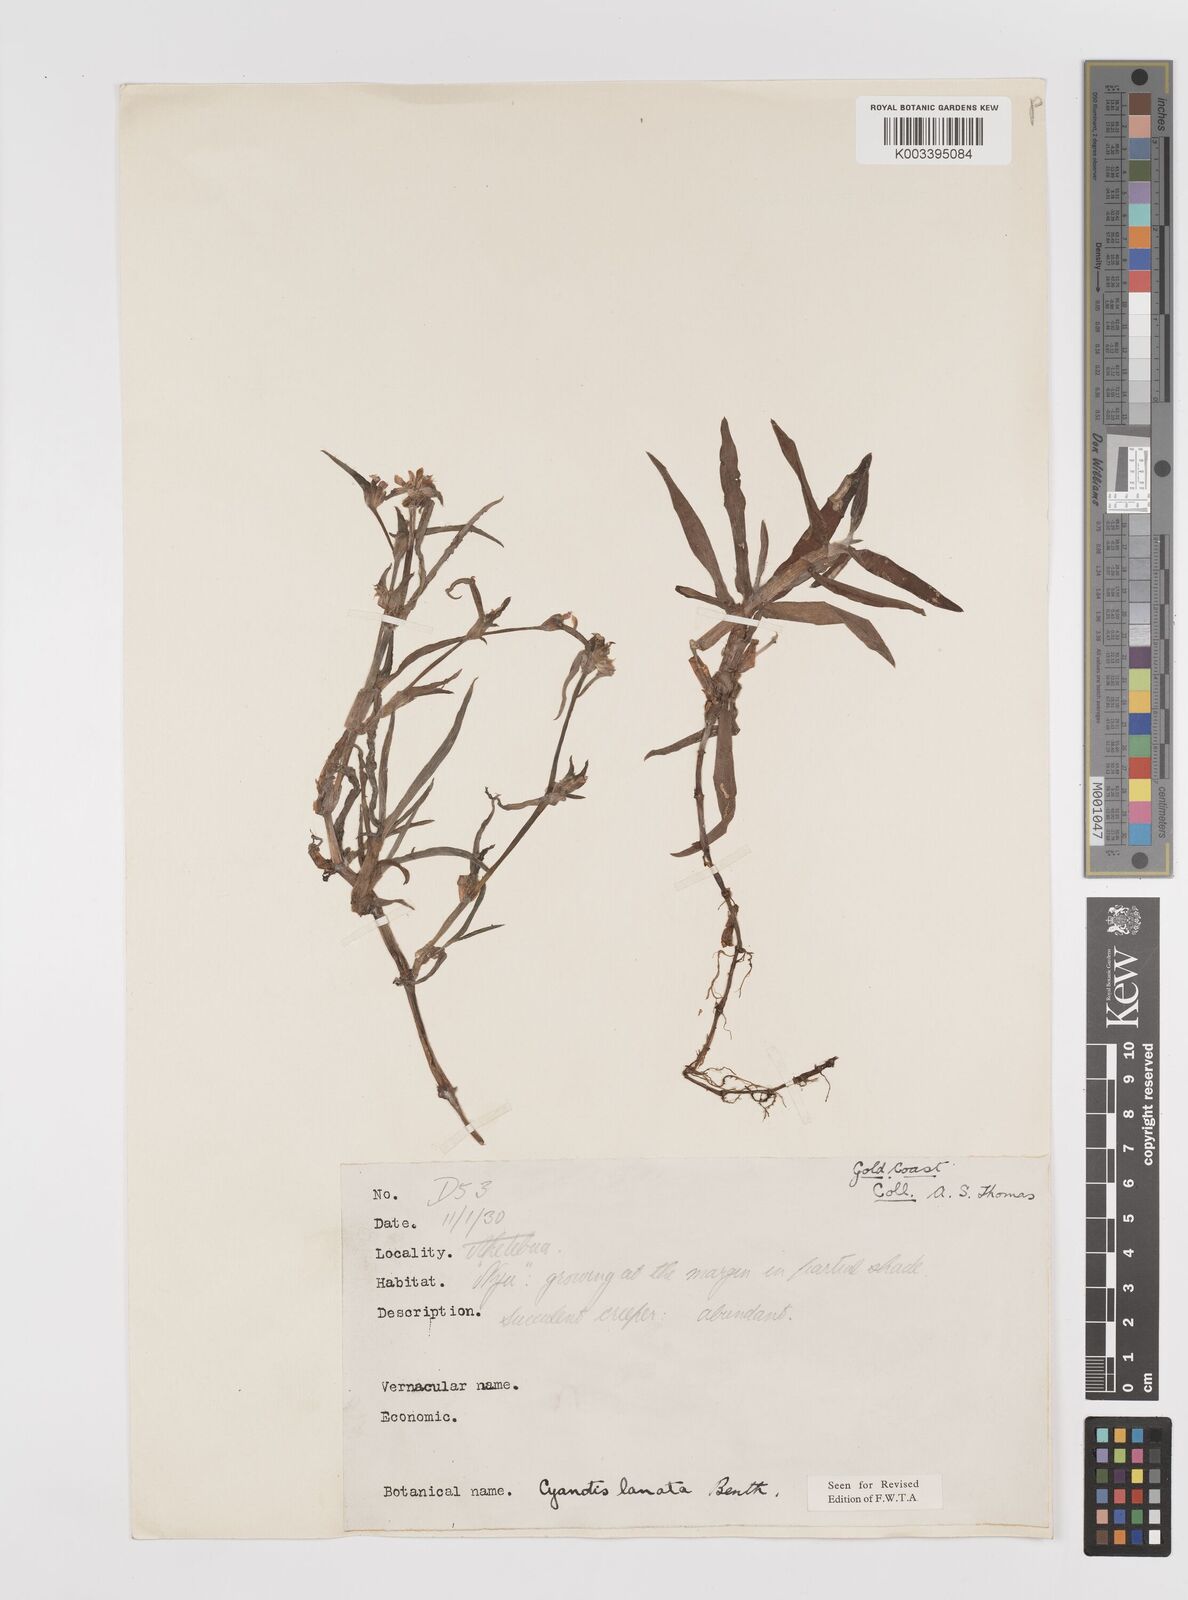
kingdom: Plantae
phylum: Tracheophyta
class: Liliopsida
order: Commelinales
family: Commelinaceae
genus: Cyanotis
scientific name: Cyanotis lanata
